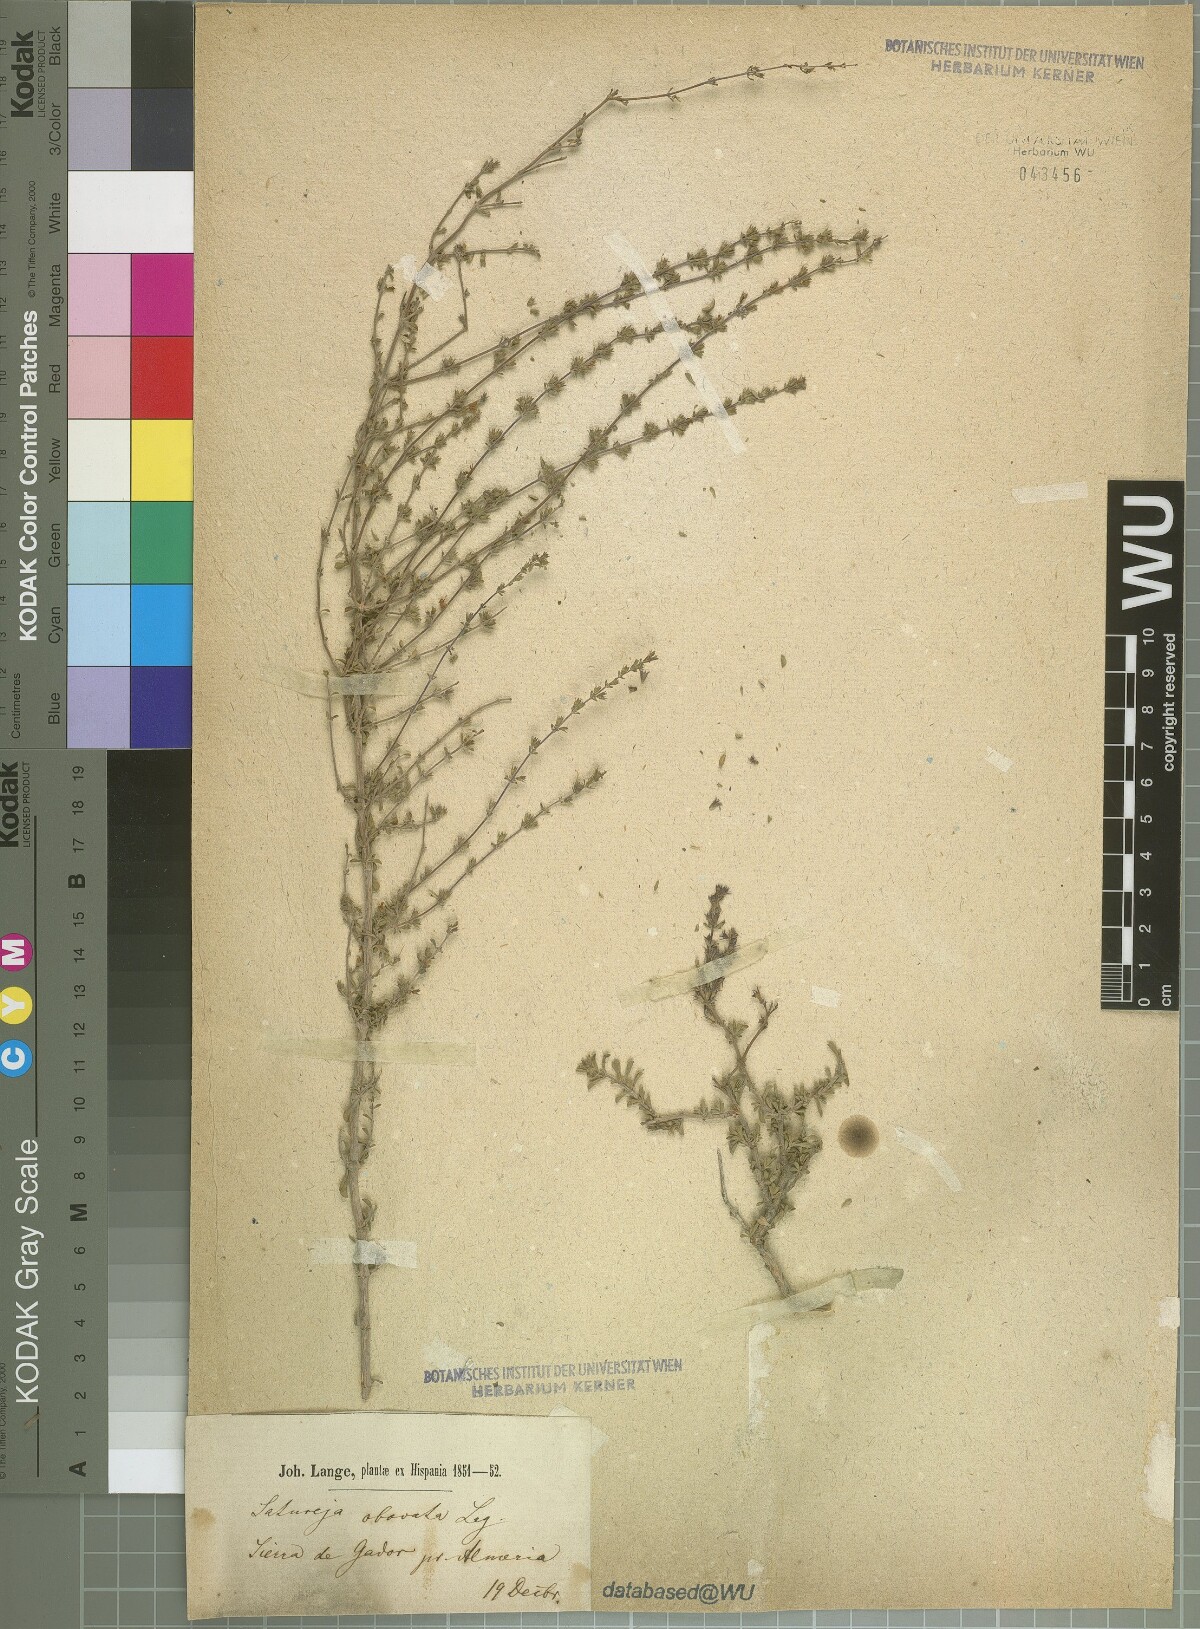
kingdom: Plantae
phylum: Tracheophyta
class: Magnoliopsida
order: Lamiales
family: Lamiaceae
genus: Satureja
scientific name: Satureja cuneifolia
